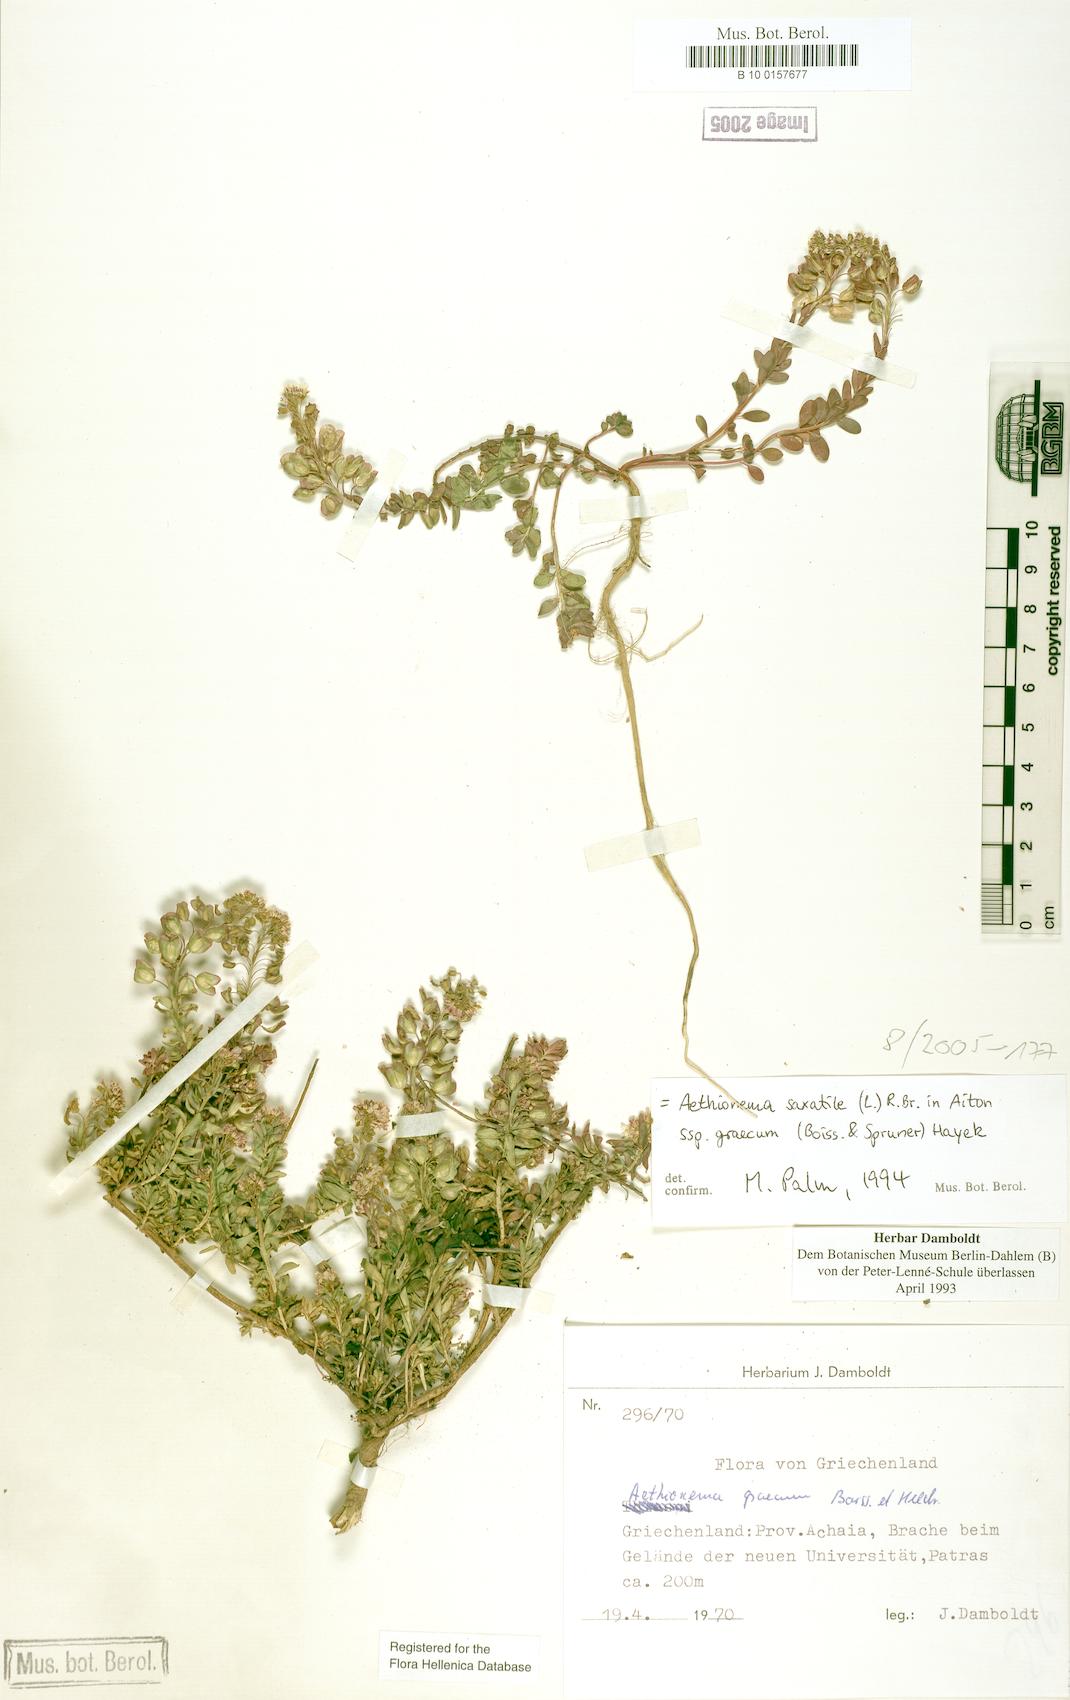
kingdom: Plantae
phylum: Tracheophyta
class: Magnoliopsida
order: Brassicales
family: Brassicaceae
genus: Aethionema
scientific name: Aethionema saxatile
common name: Burnt candytuft
